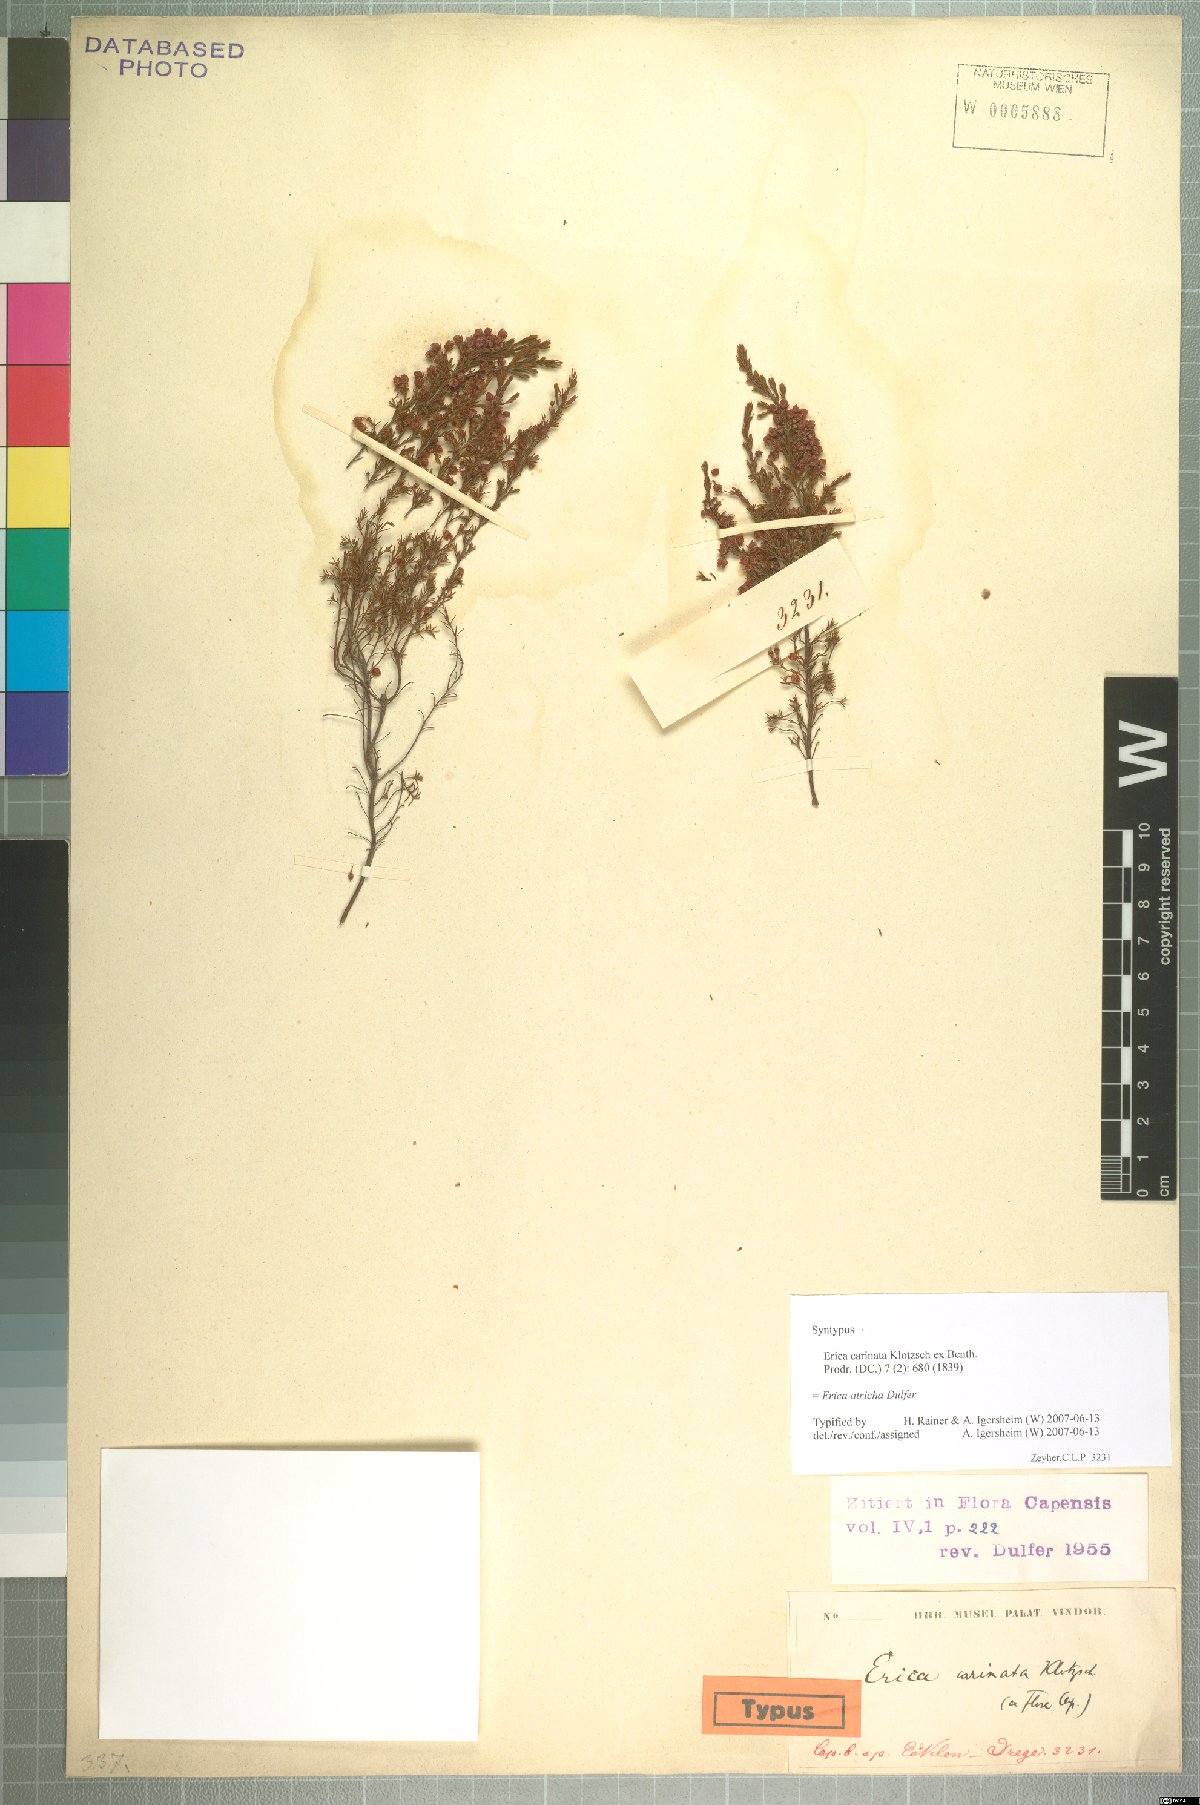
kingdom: Plantae
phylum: Tracheophyta
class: Magnoliopsida
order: Ericales
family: Ericaceae
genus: Erica
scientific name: Erica atricha
